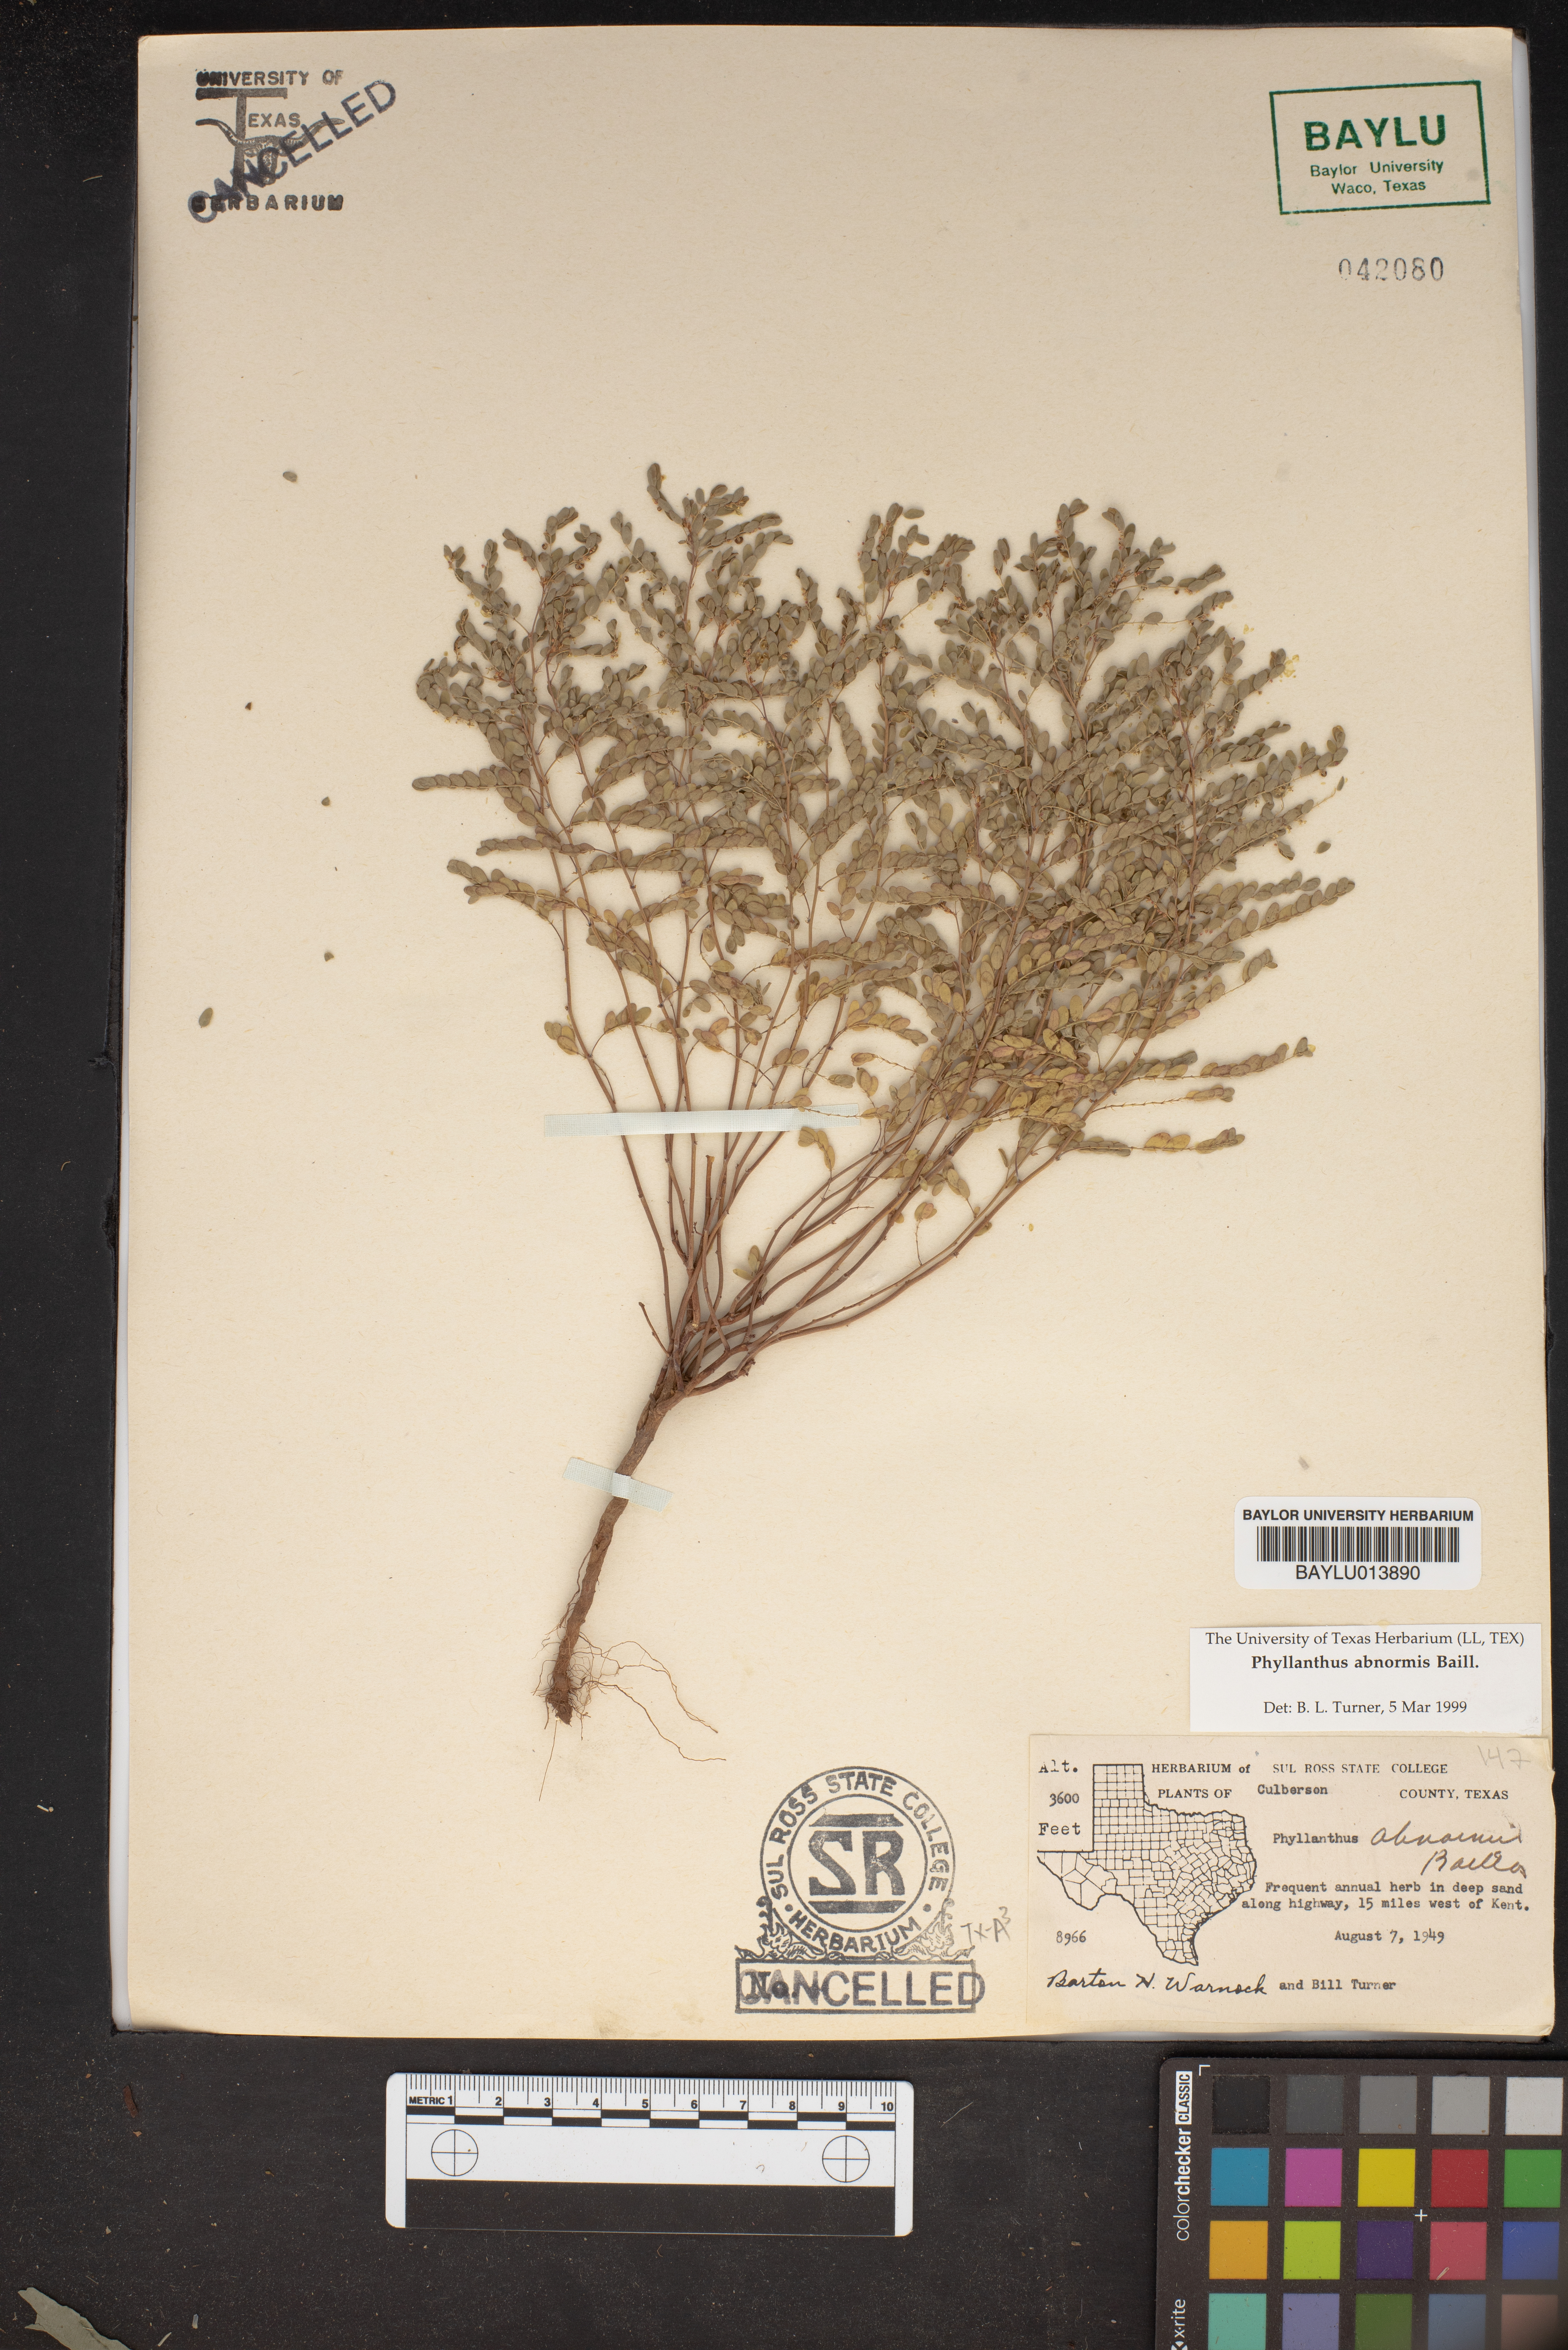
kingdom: Plantae
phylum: Tracheophyta
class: Magnoliopsida
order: Malpighiales
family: Phyllanthaceae
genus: Phyllanthus
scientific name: Phyllanthus abnormis
